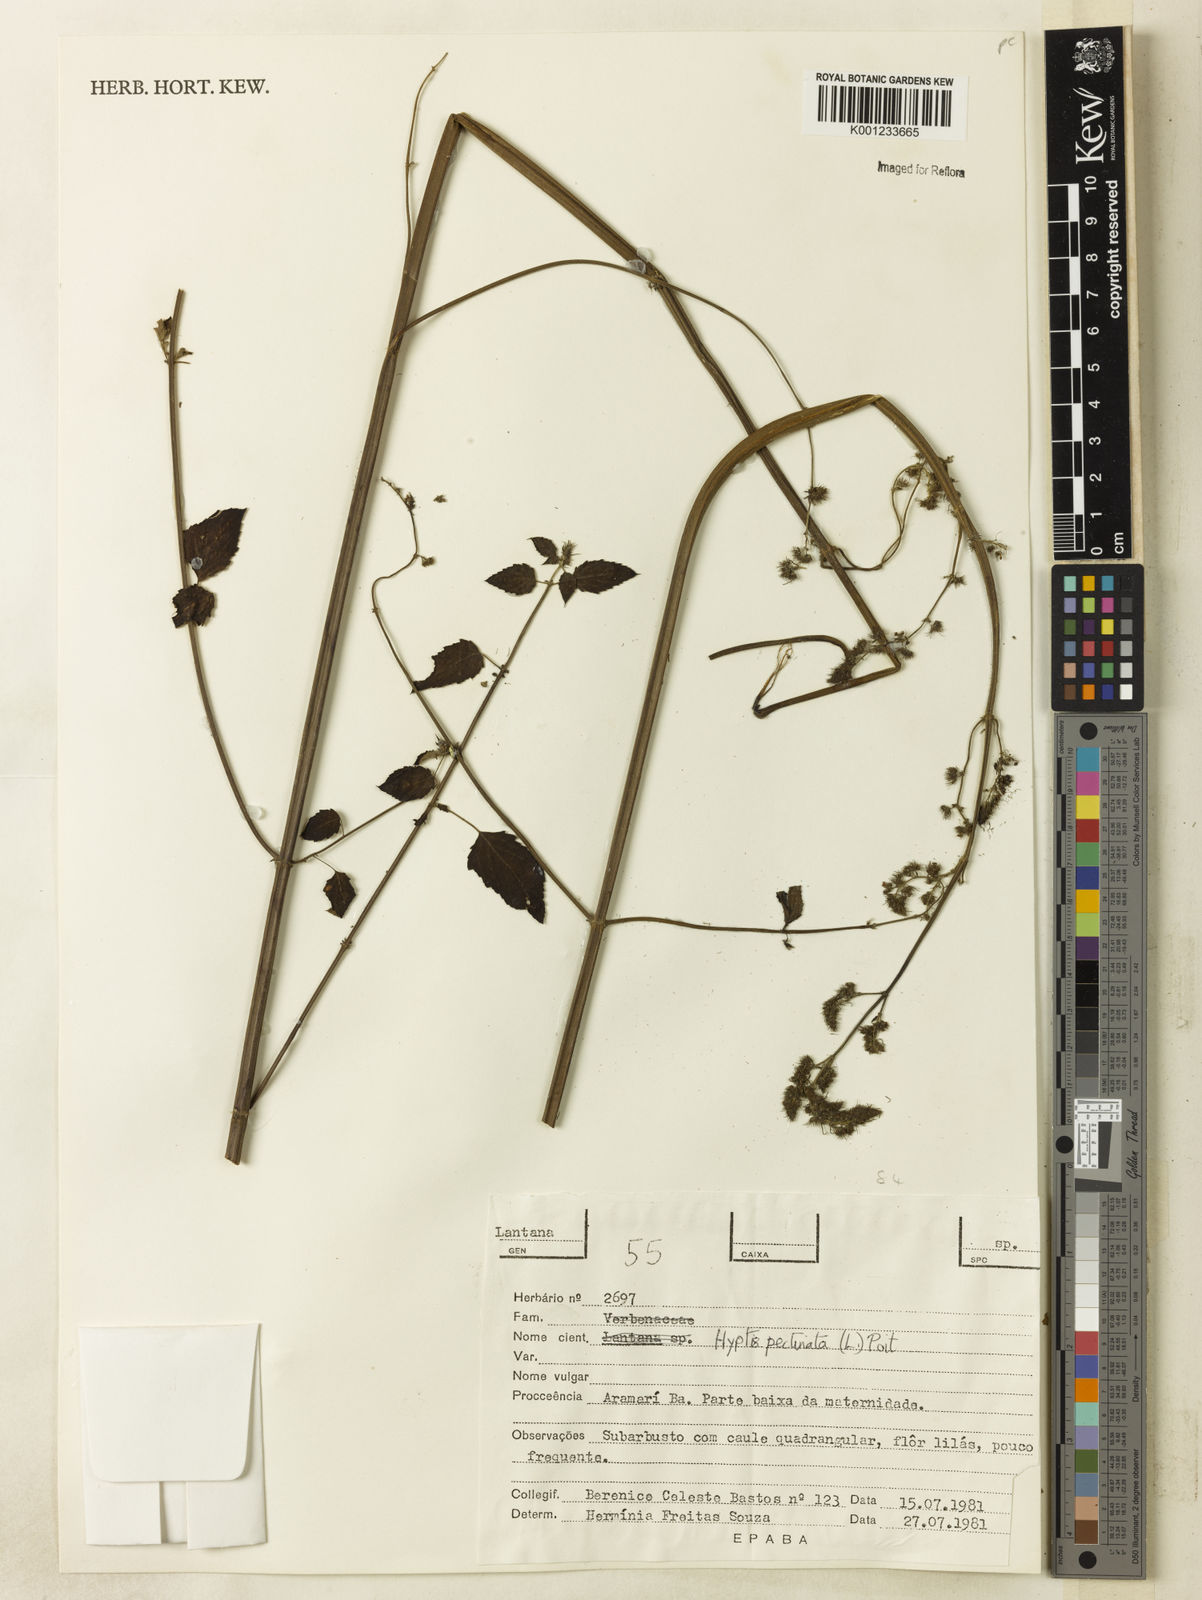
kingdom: Plantae
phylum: Tracheophyta
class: Magnoliopsida
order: Lamiales
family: Lamiaceae
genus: Mesosphaerum
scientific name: Mesosphaerum pectinatum
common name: Comb hyptis
